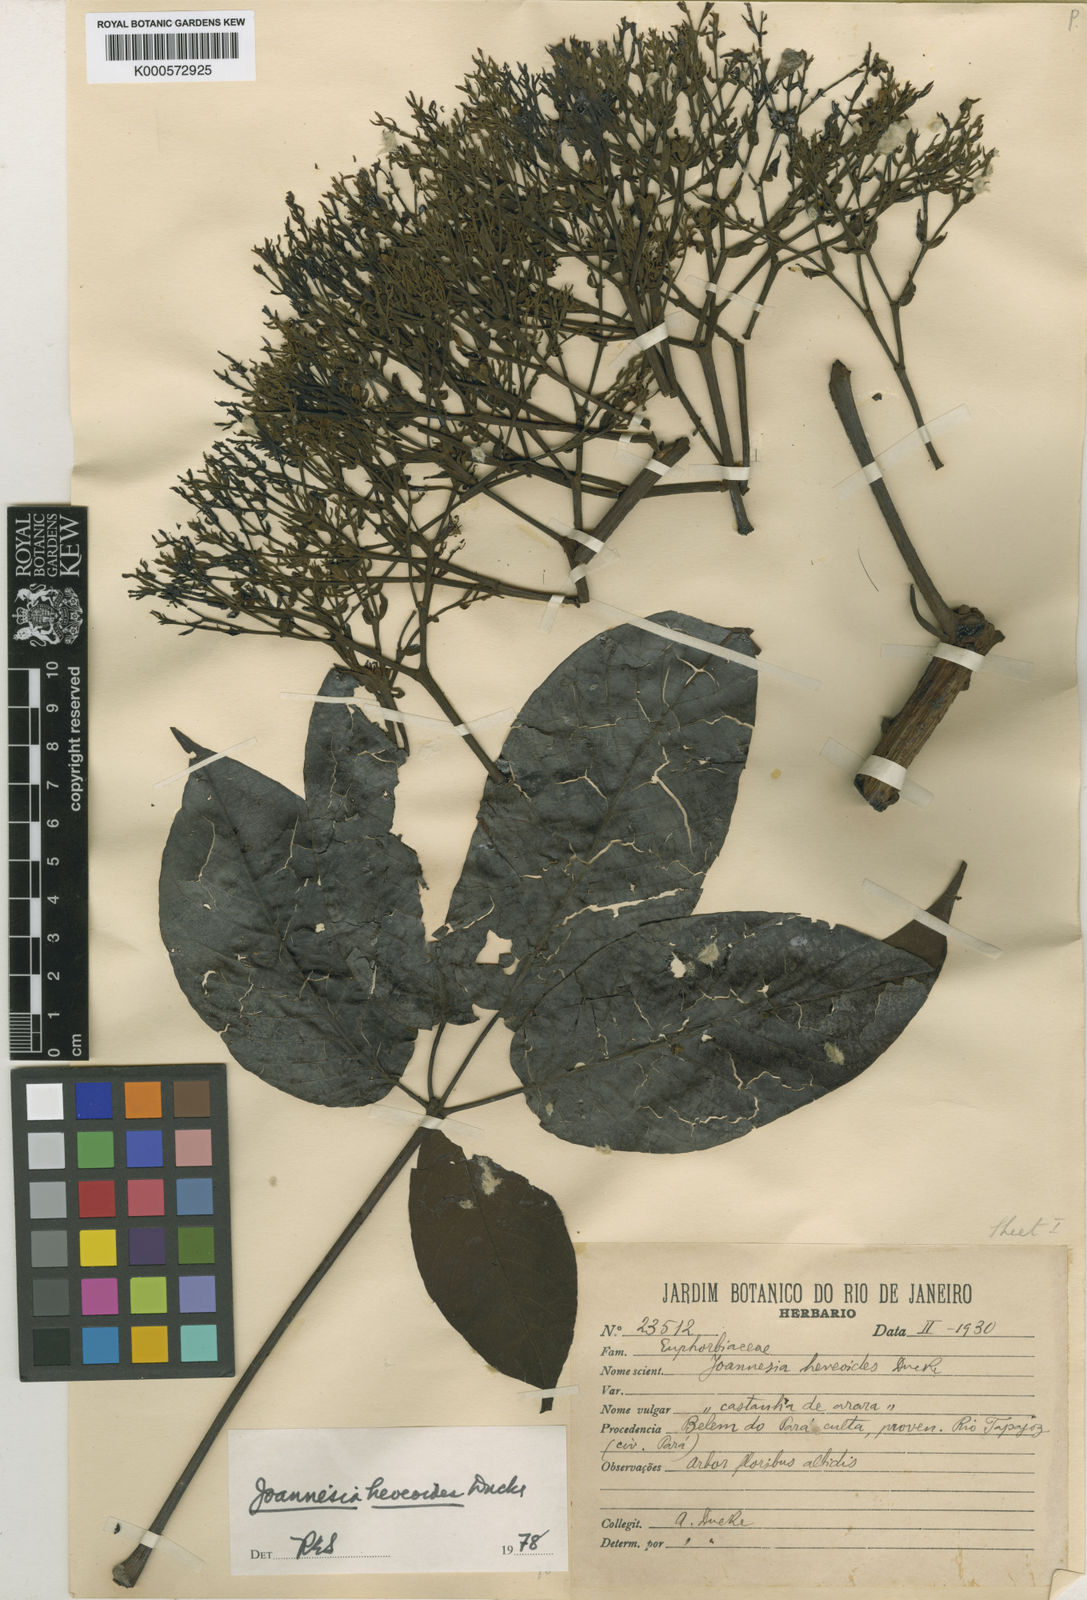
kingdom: Plantae
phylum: Tracheophyta
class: Magnoliopsida
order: Malpighiales
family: Euphorbiaceae
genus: Joannesia
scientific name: Joannesia heveoides
